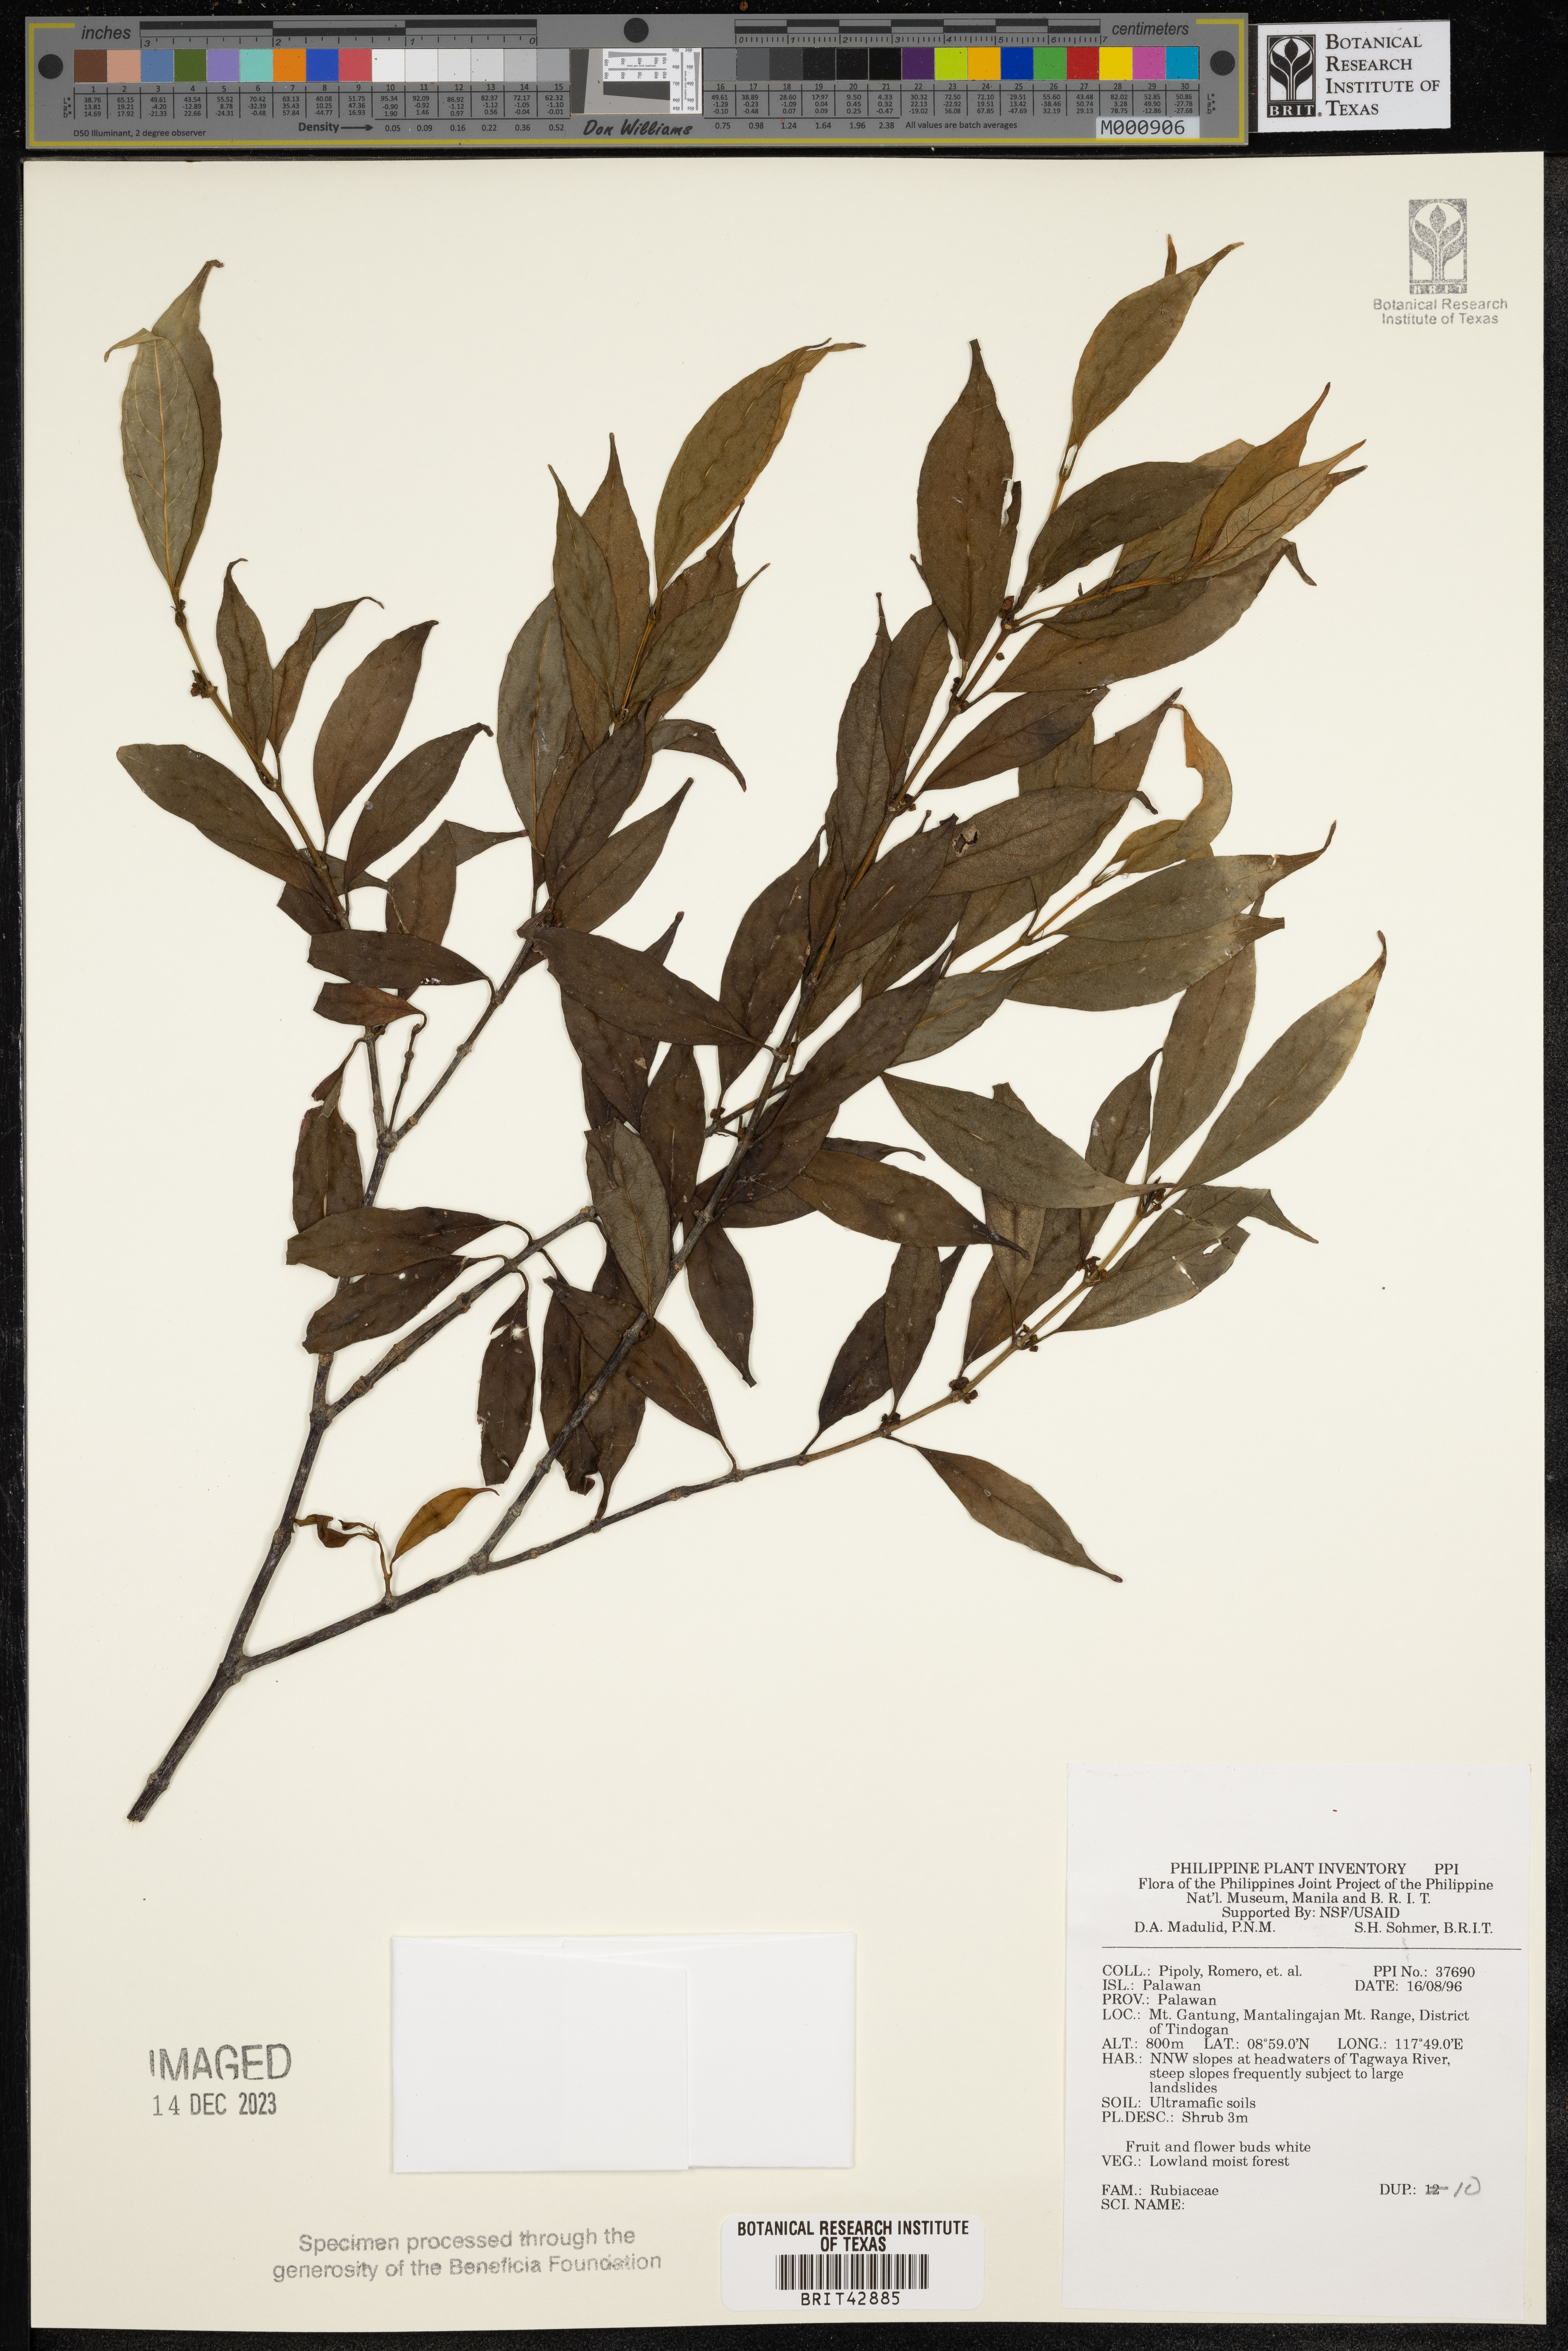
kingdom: Plantae
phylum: Tracheophyta
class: Magnoliopsida
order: Gentianales
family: Rubiaceae
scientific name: Rubiaceae
